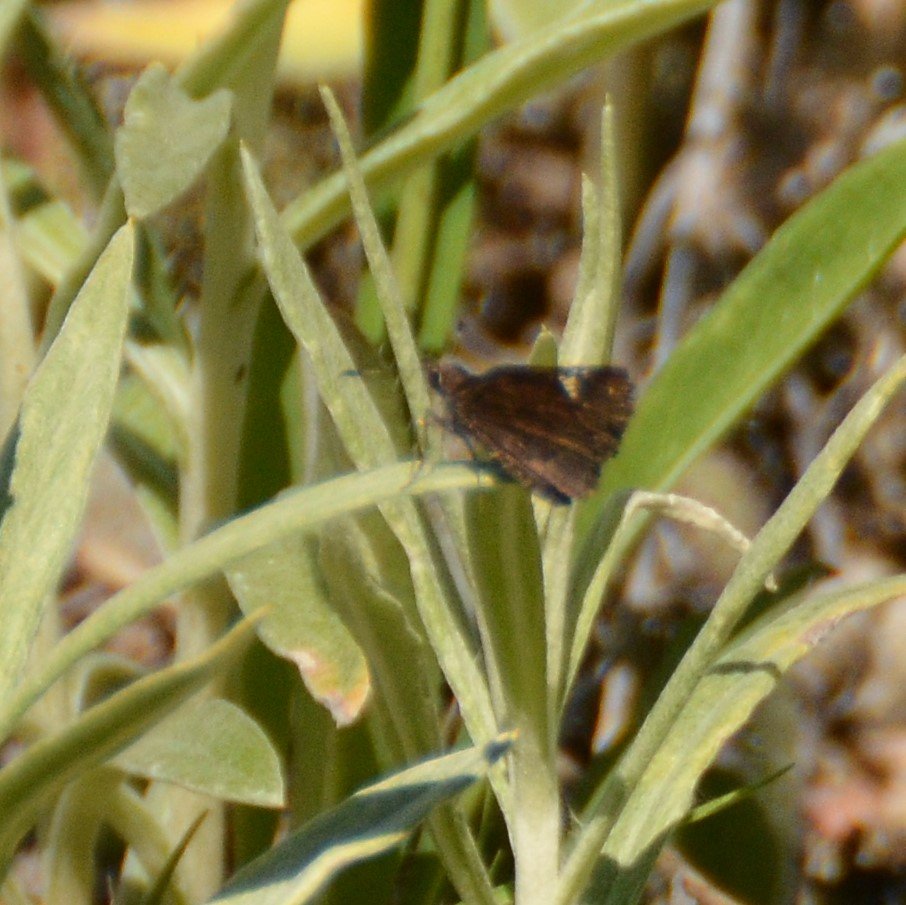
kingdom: Animalia
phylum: Arthropoda
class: Insecta
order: Lepidoptera
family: Hesperiidae
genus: Mastor
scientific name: Mastor vialis
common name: Common Roadside-Skipper
